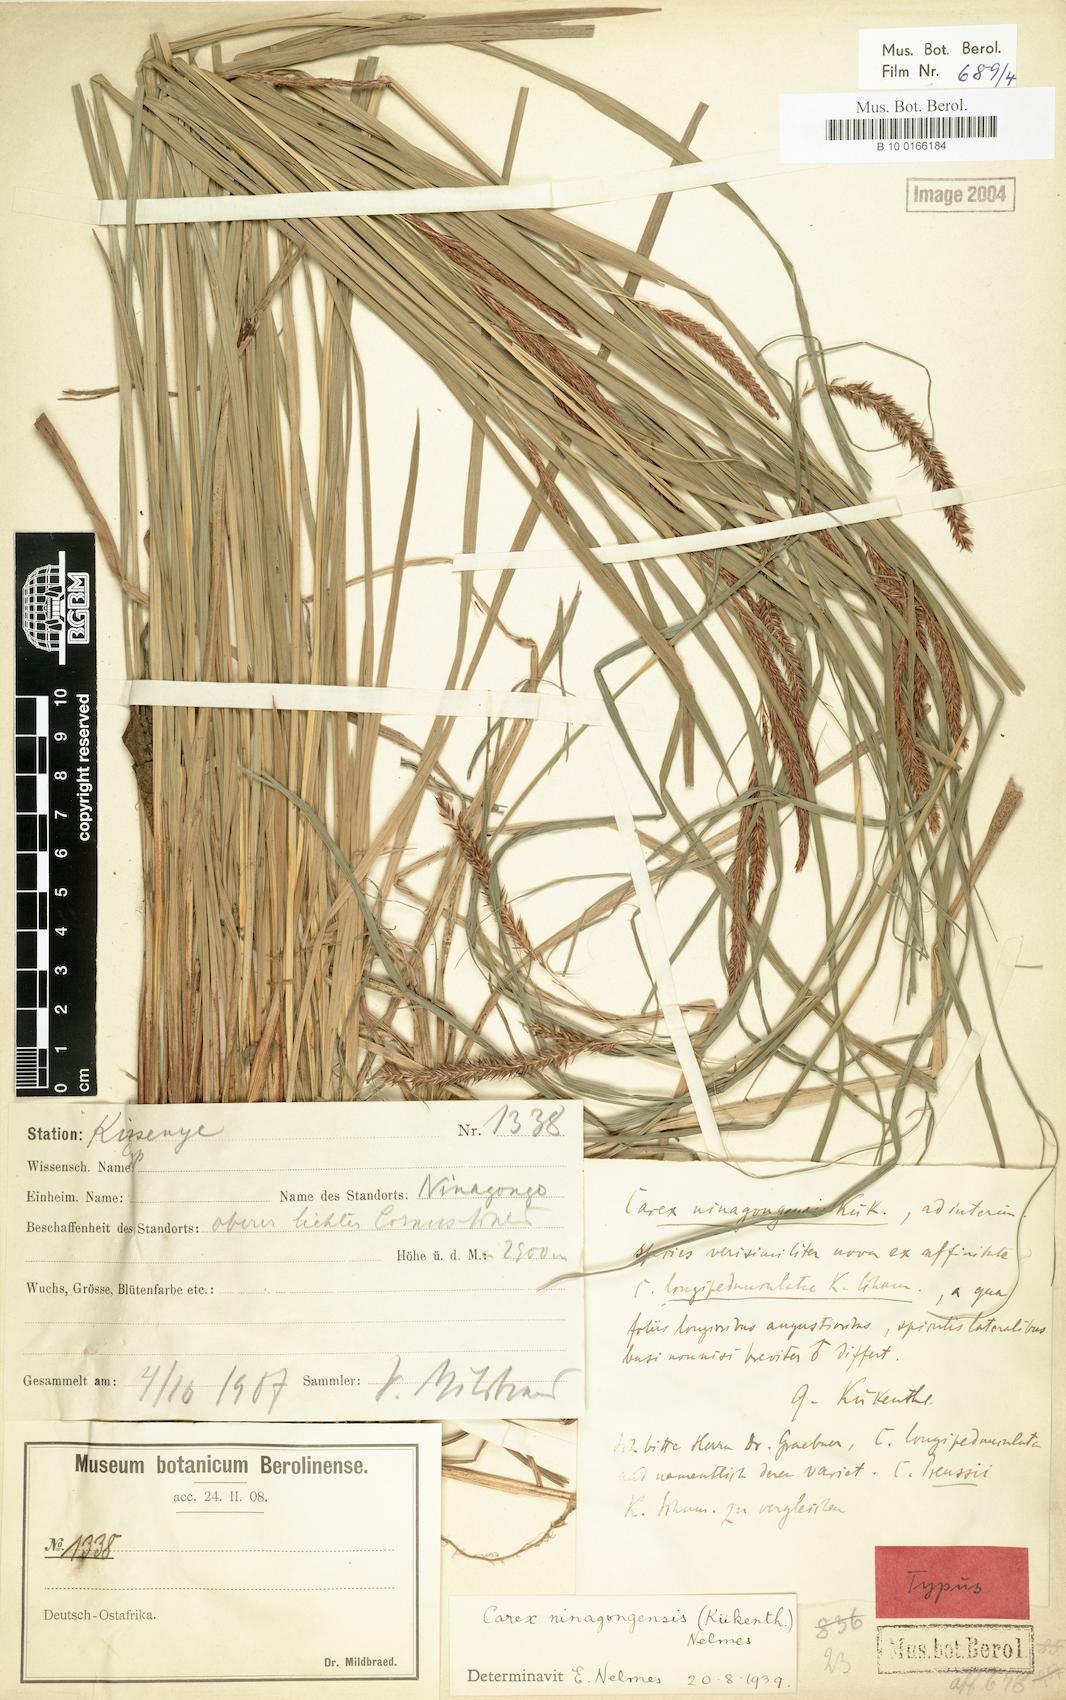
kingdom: Plantae
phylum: Tracheophyta
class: Liliopsida
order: Poales
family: Cyperaceae
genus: Carex
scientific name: Carex mannii
